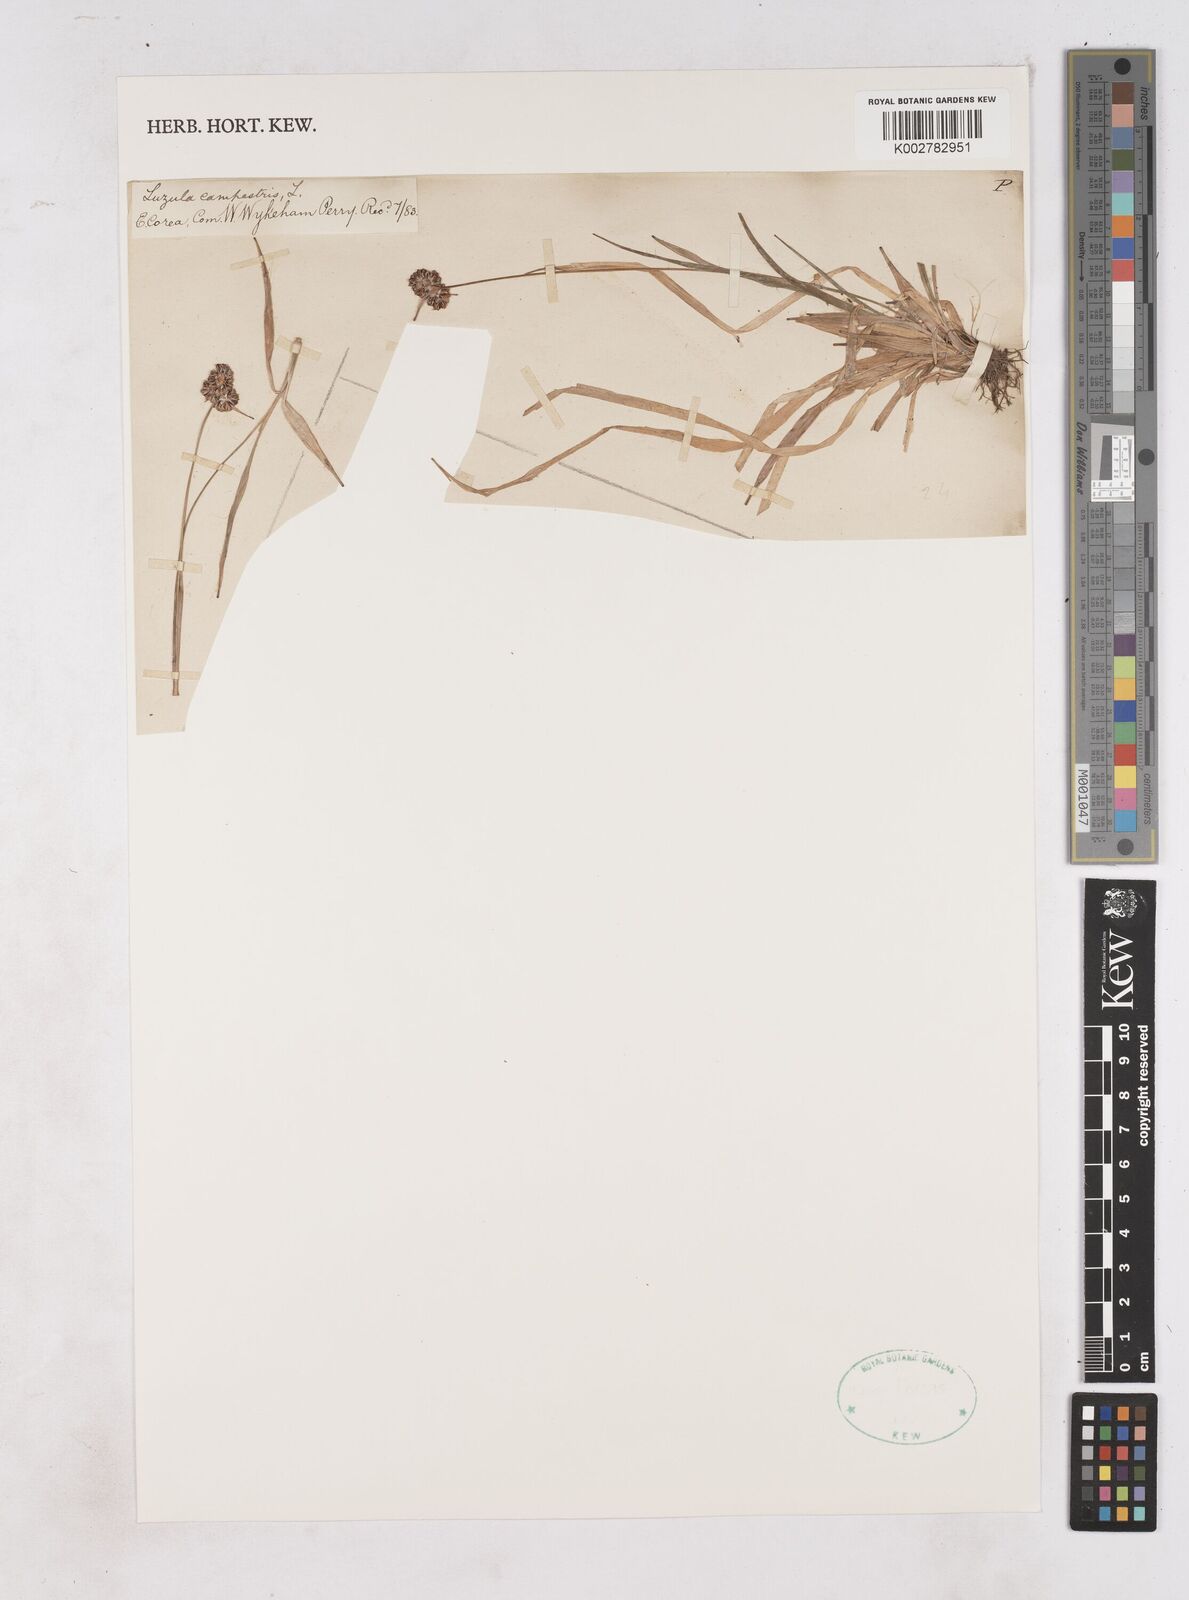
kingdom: Plantae
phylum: Tracheophyta
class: Liliopsida
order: Poales
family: Juncaceae
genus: Luzula
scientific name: Luzula campestris
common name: Field wood-rush
